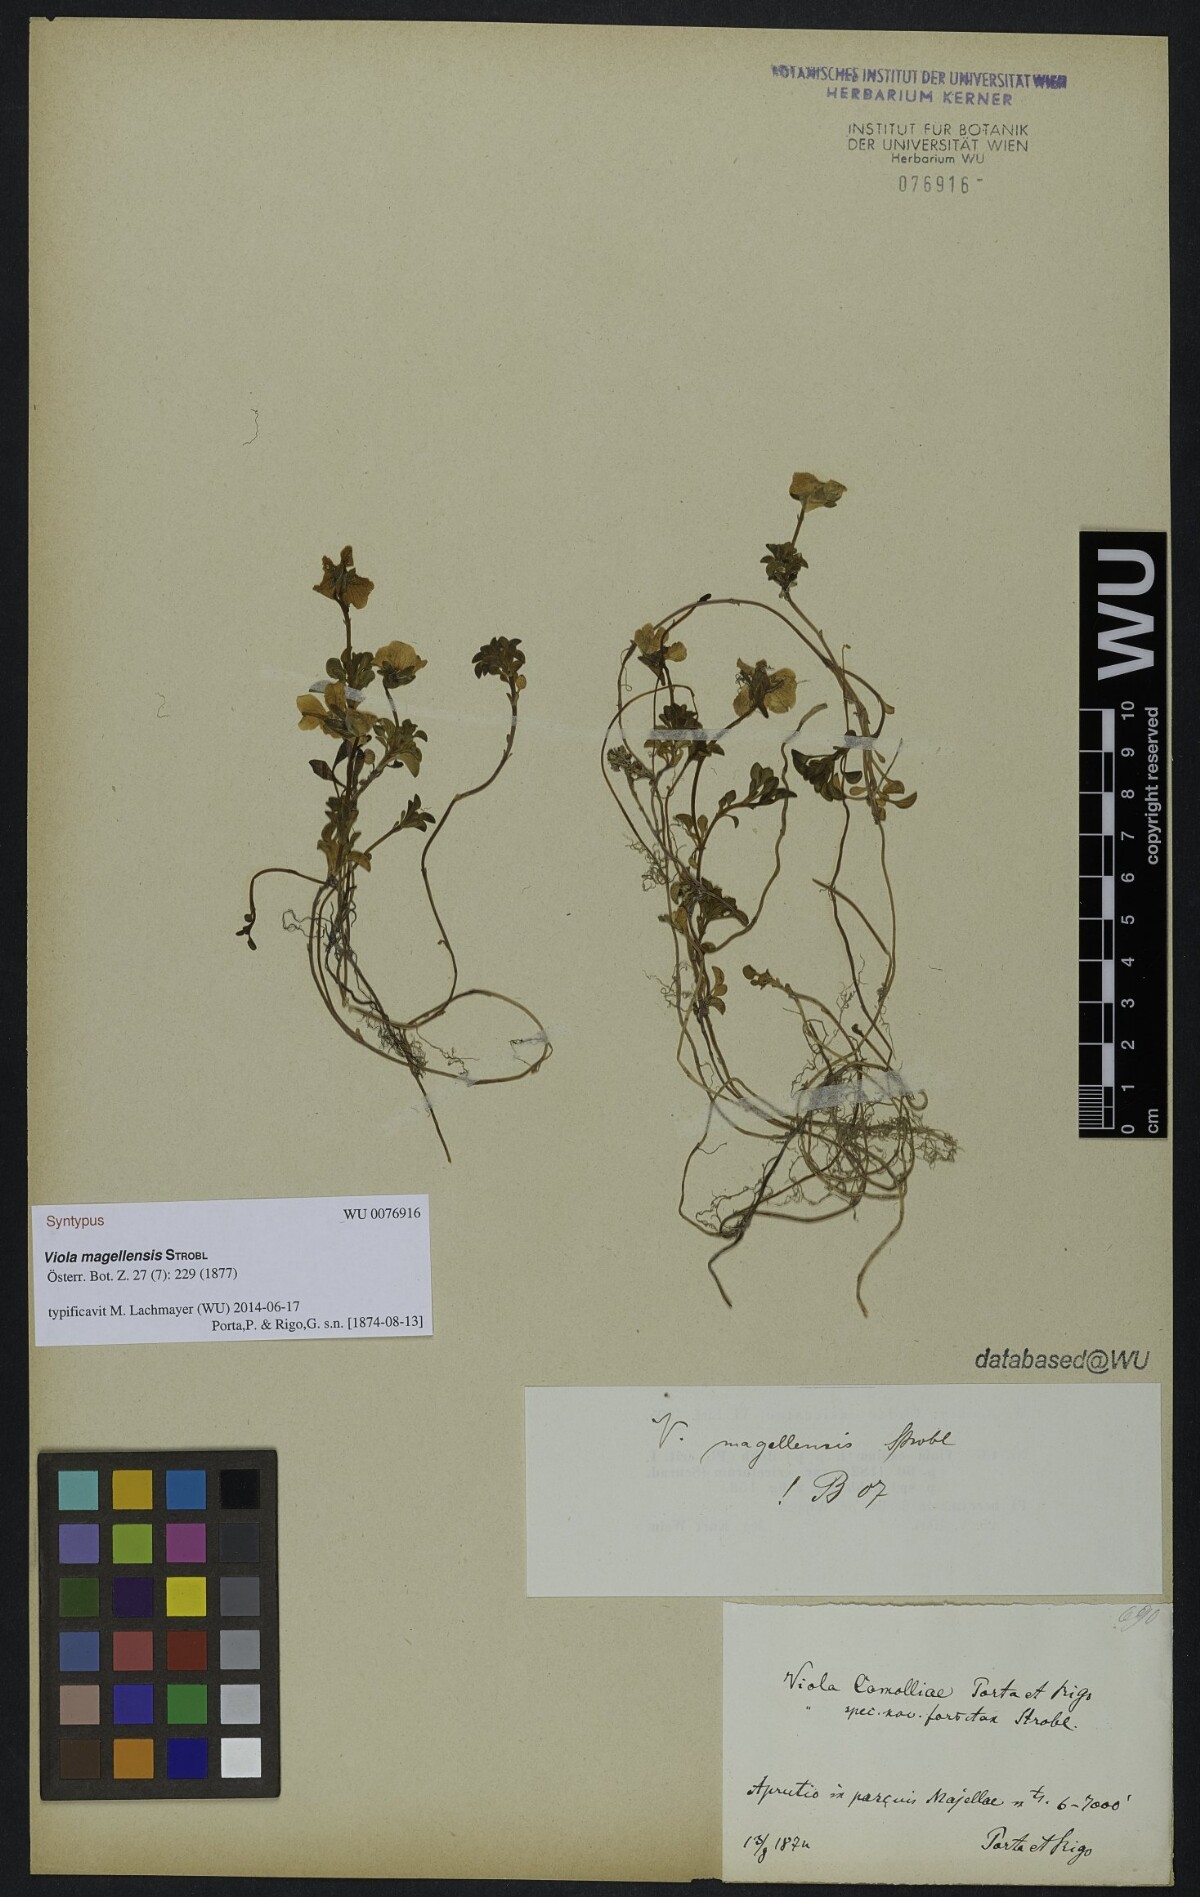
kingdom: Plantae
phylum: Tracheophyta
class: Magnoliopsida
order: Malpighiales
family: Violaceae
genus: Viola
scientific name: Viola magellensis
